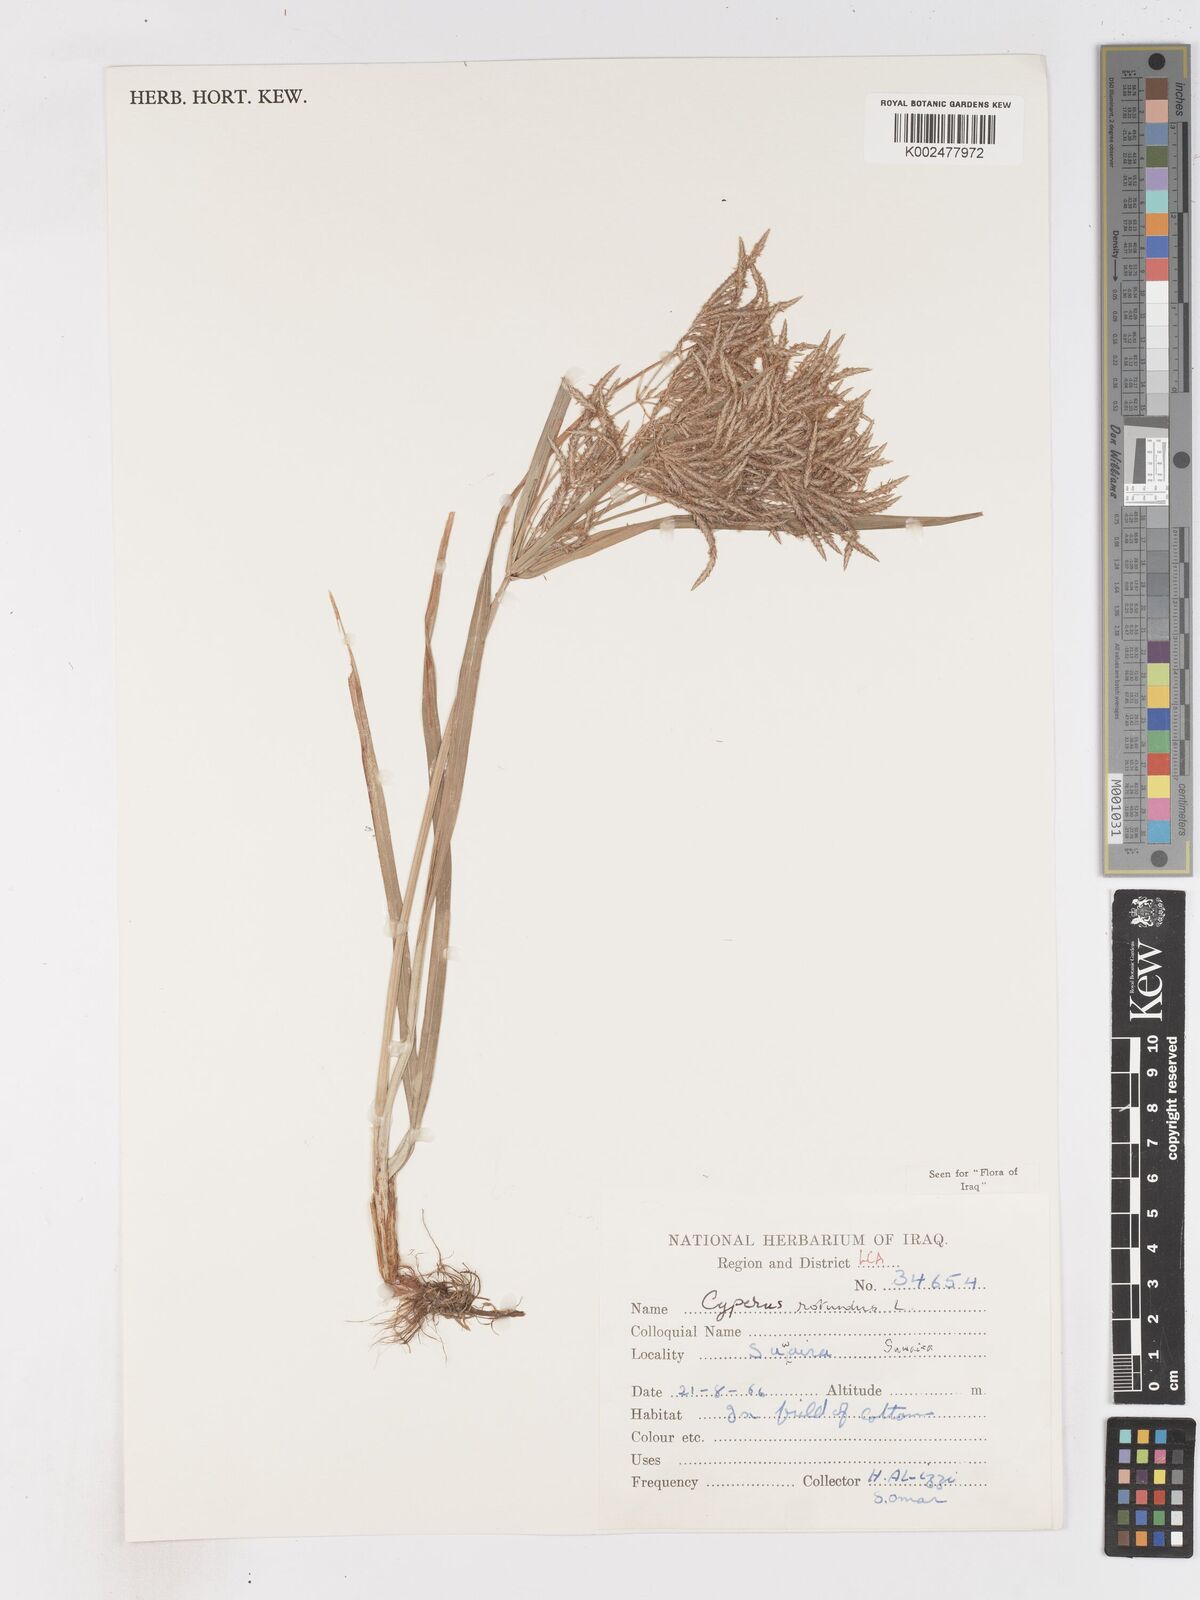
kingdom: Plantae
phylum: Tracheophyta
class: Liliopsida
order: Poales
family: Cyperaceae
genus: Cyperus
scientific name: Cyperus rotundus
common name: Nutgrass
